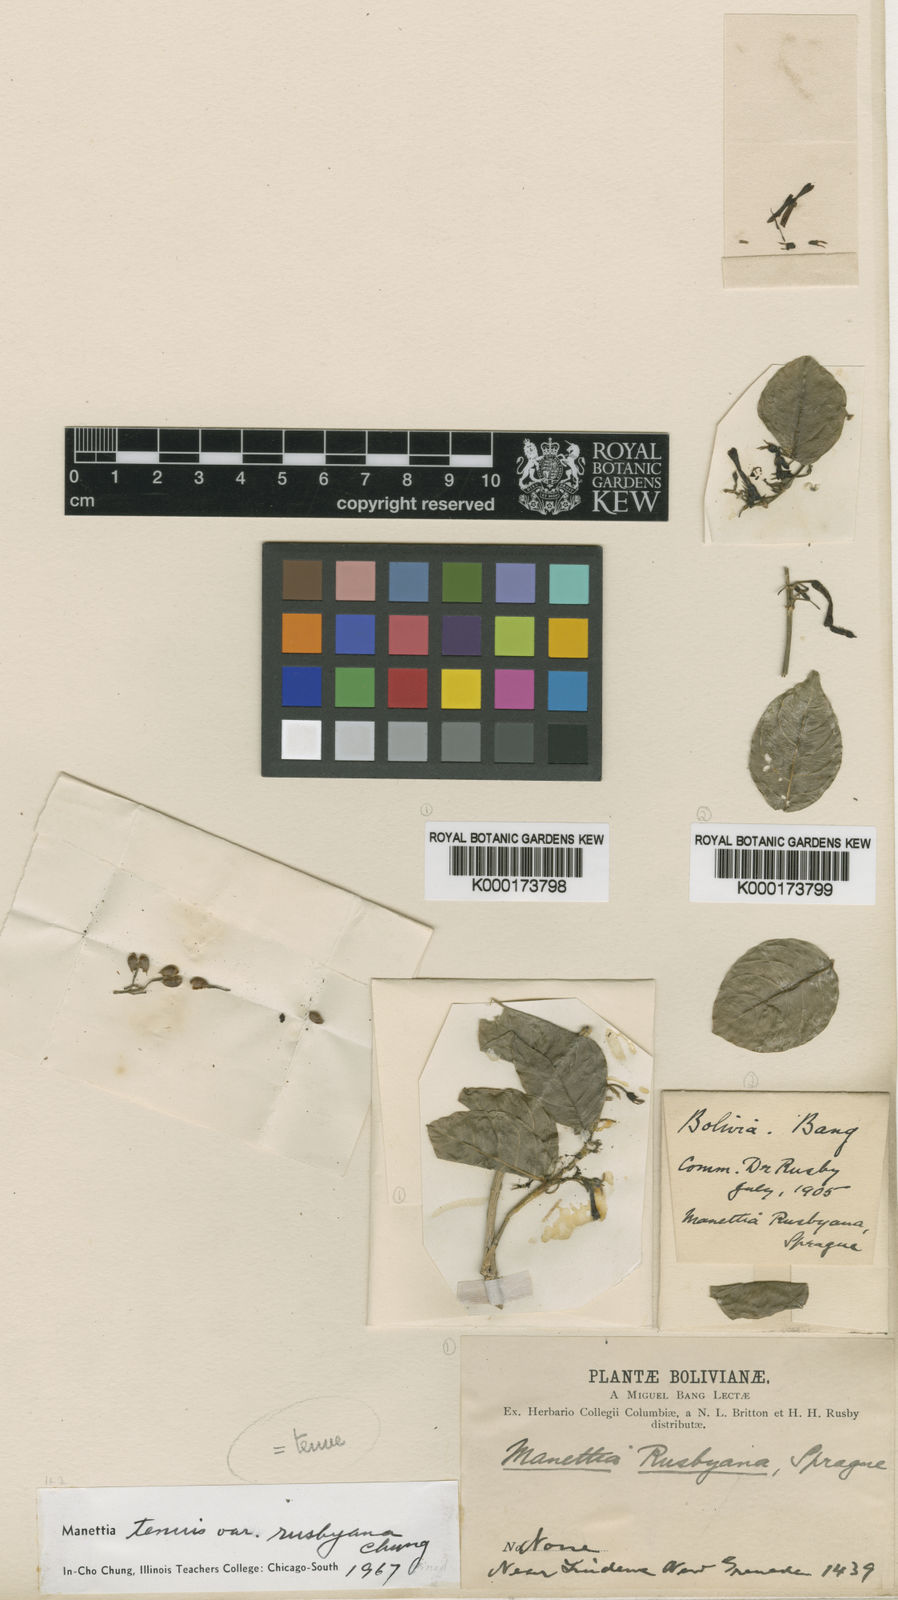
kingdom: Plantae
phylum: Tracheophyta
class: Magnoliopsida
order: Gentianales
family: Rubiaceae
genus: Manettia
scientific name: Manettia tenuis
